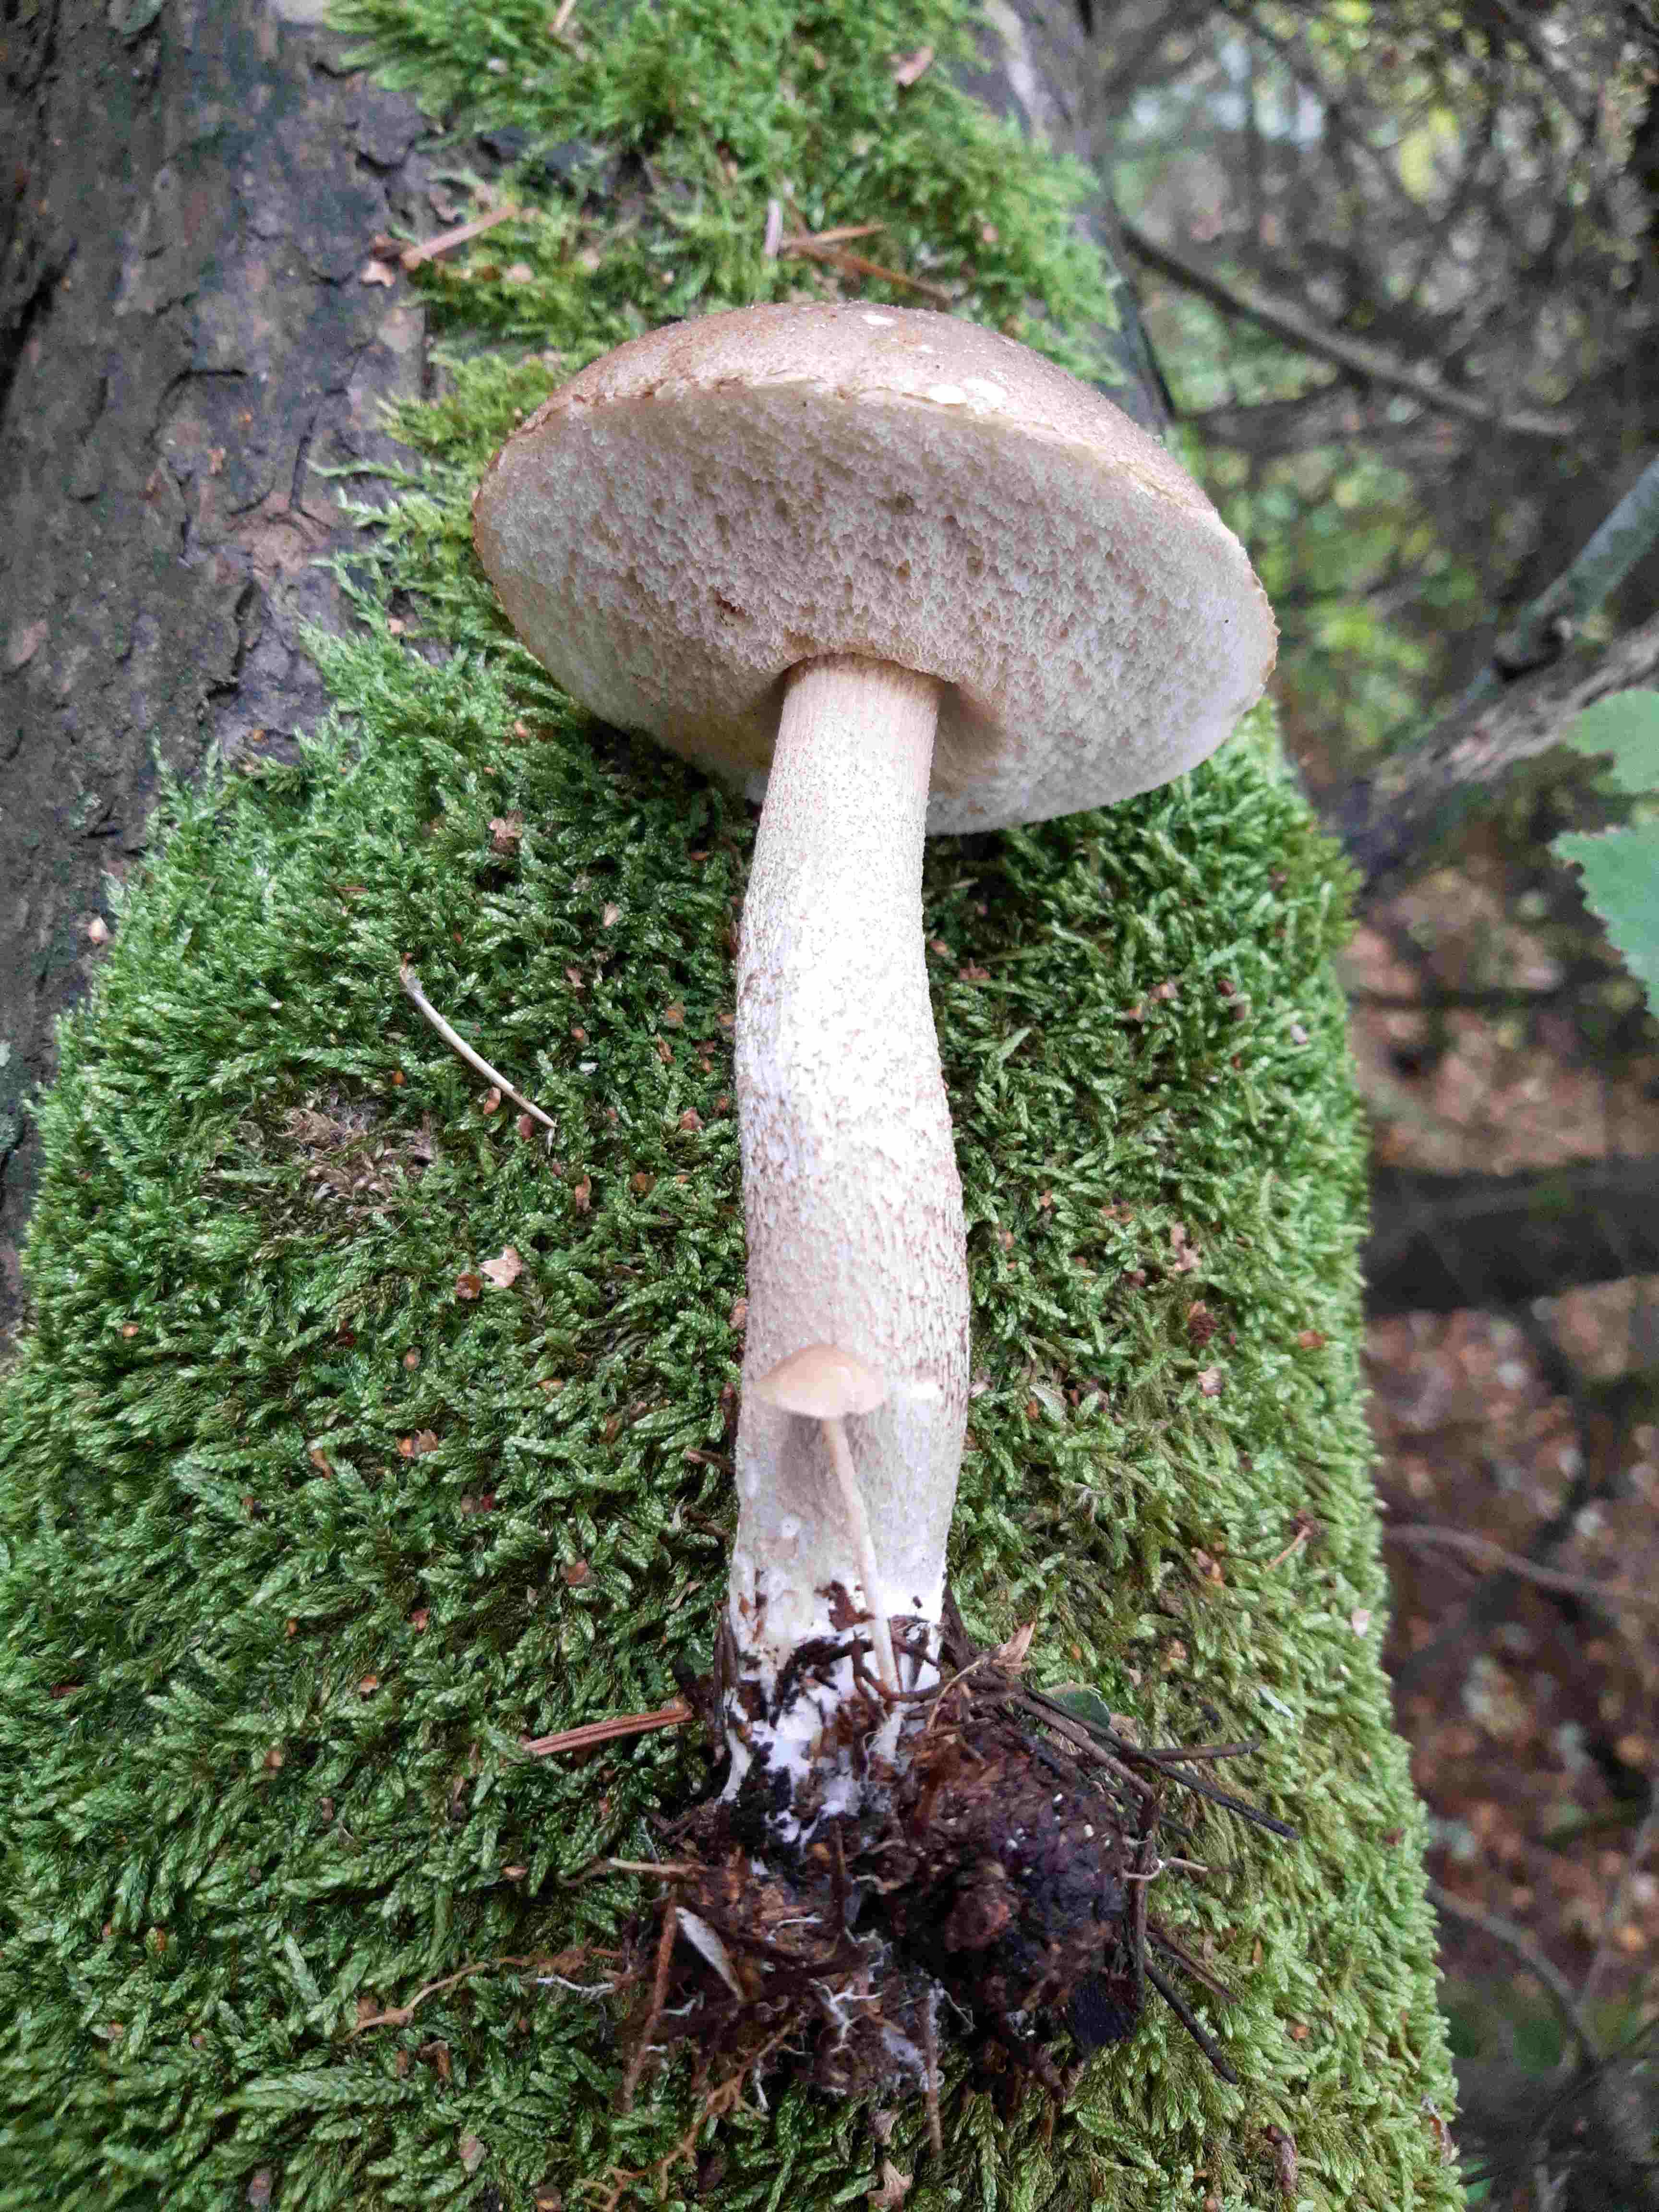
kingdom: Fungi
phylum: Basidiomycota
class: Agaricomycetes
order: Boletales
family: Boletaceae
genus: Leccinum
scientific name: Leccinum
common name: skælrørhat
